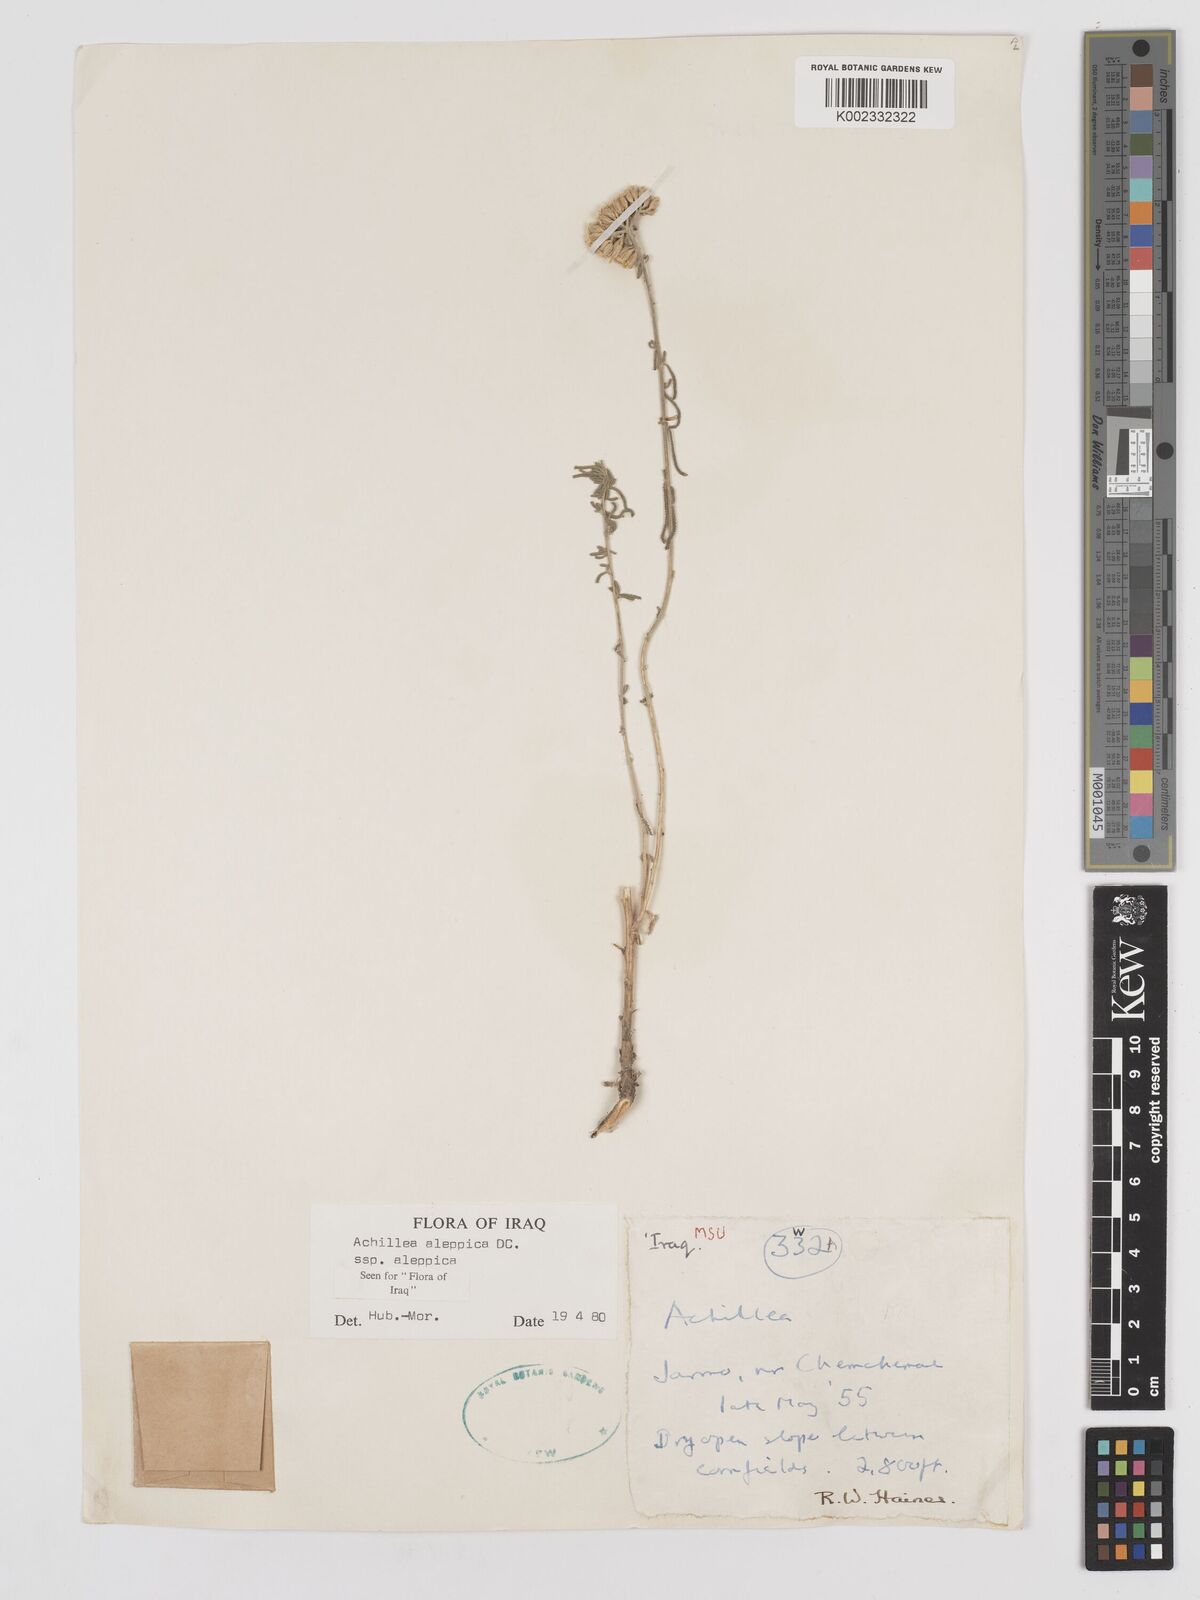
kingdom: Plantae
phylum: Tracheophyta
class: Magnoliopsida
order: Asterales
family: Asteraceae
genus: Achillea
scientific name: Achillea aleppica
